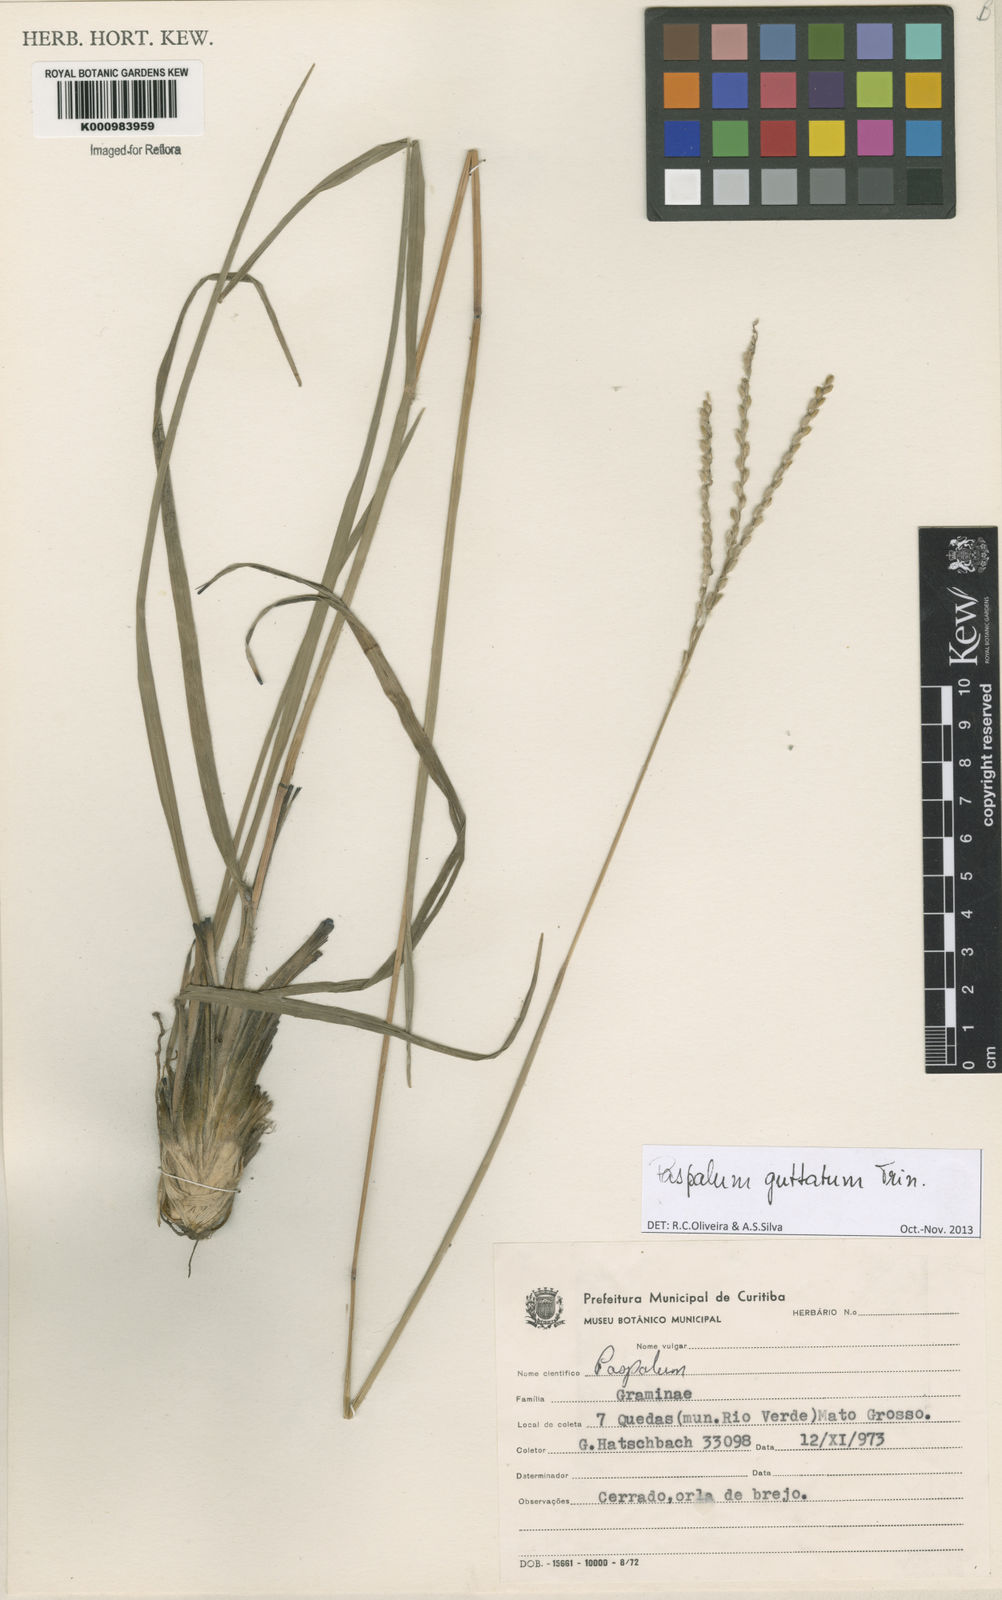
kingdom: Plantae
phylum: Tracheophyta
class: Liliopsida
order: Poales
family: Poaceae
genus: Paspalum
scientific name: Paspalum ammodes
